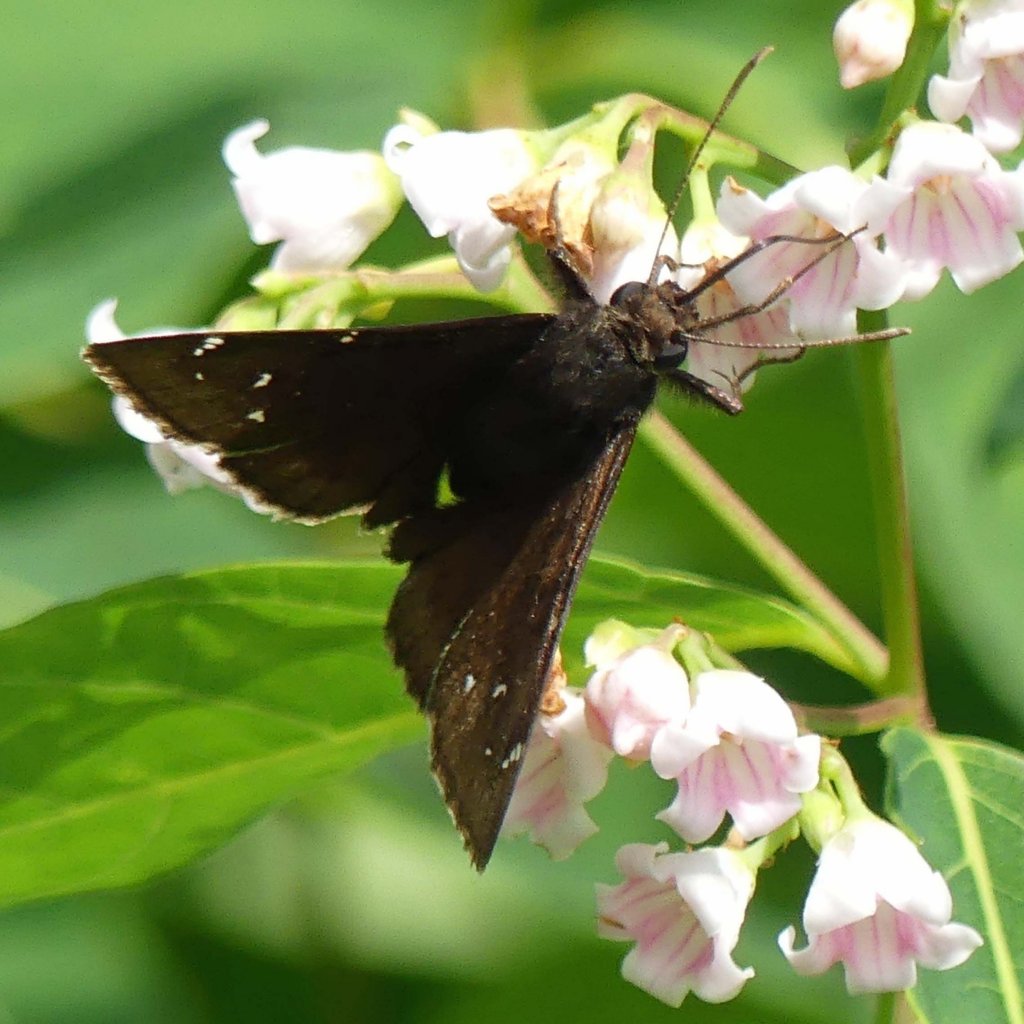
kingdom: Animalia
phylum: Arthropoda
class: Insecta
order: Lepidoptera
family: Hesperiidae
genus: Autochton
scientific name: Autochton
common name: Northern Cloudywing
